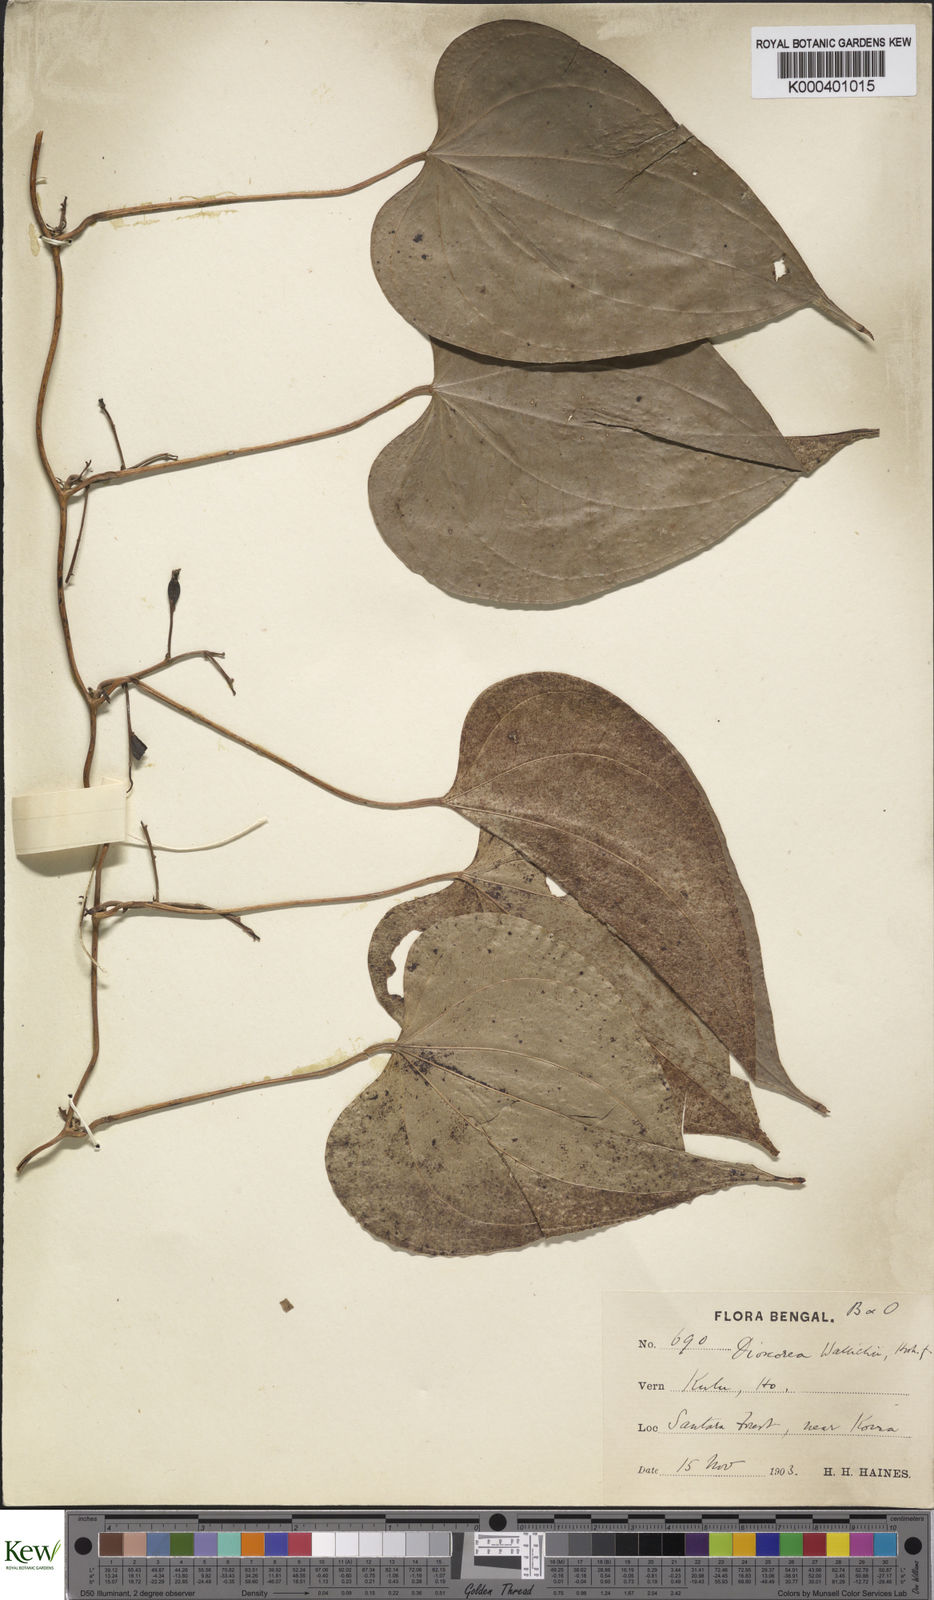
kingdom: Plantae
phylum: Tracheophyta
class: Liliopsida
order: Dioscoreales
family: Dioscoreaceae
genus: Dioscorea
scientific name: Dioscorea wallichii
